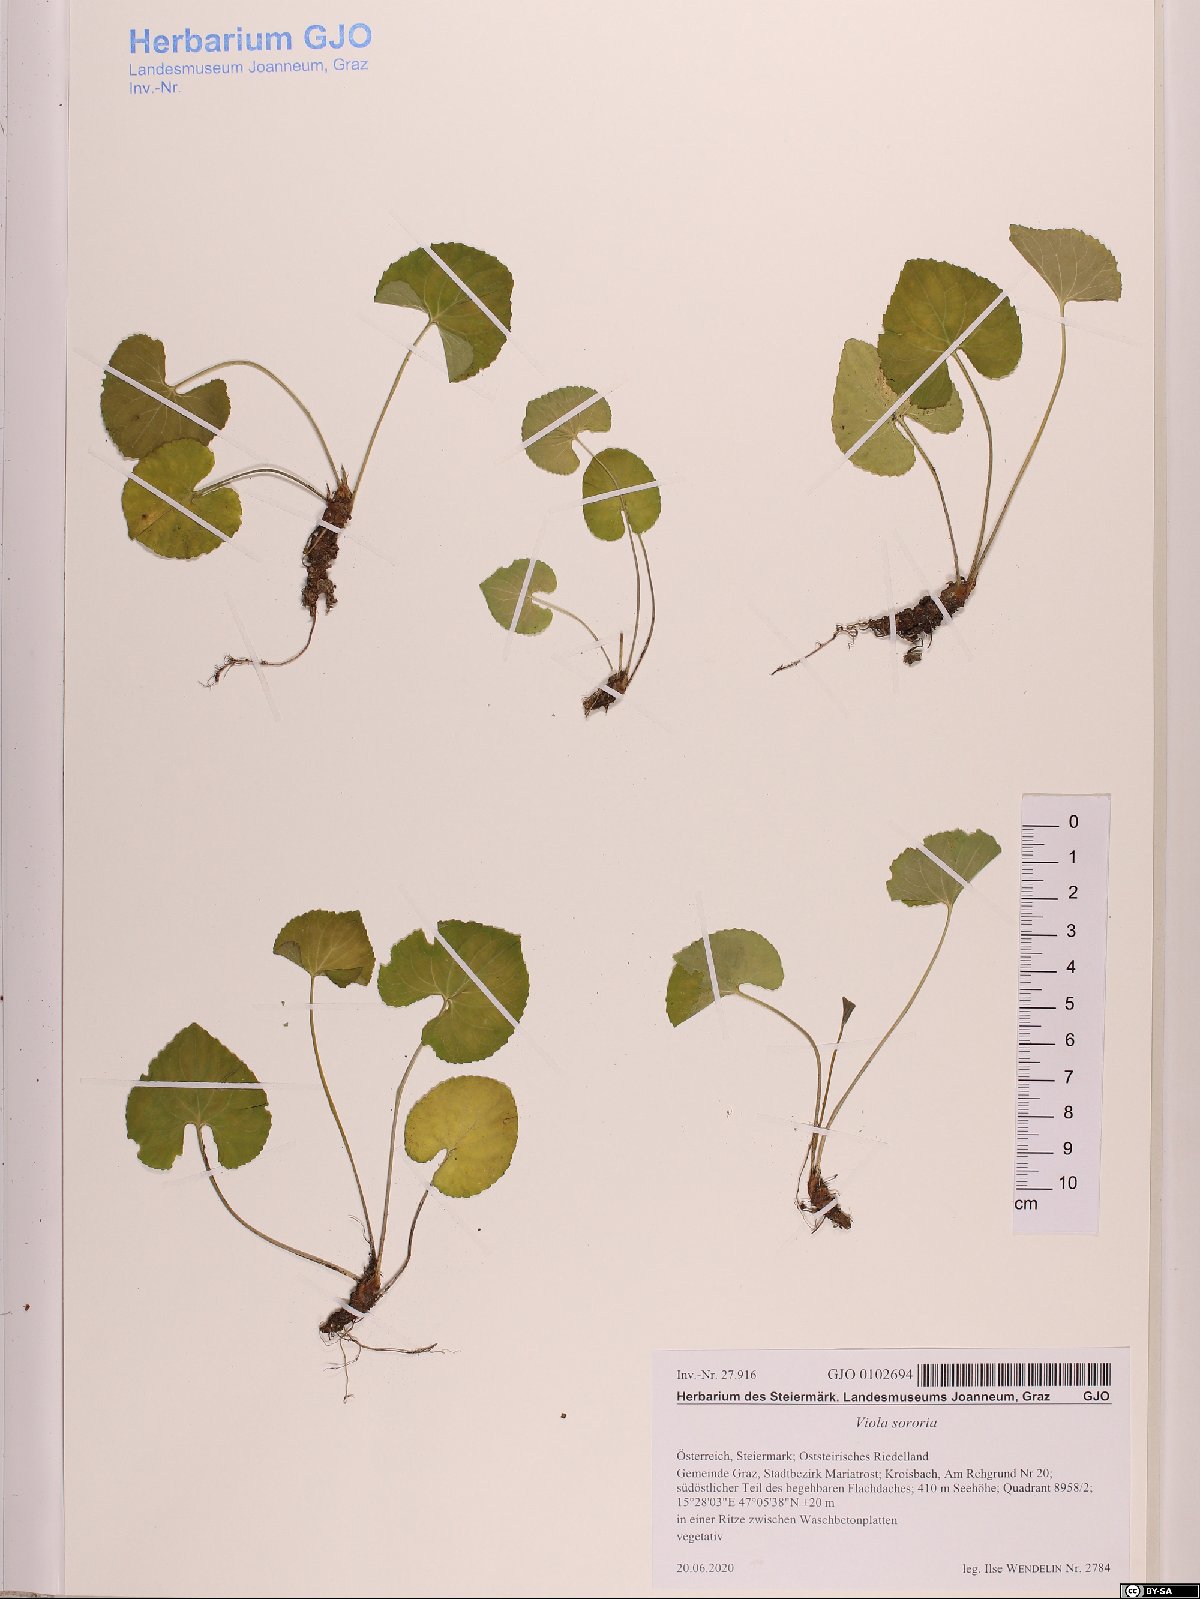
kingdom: Plantae
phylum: Tracheophyta
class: Magnoliopsida
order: Malpighiales
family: Violaceae
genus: Viola
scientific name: Viola sororia
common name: Dooryard violet
